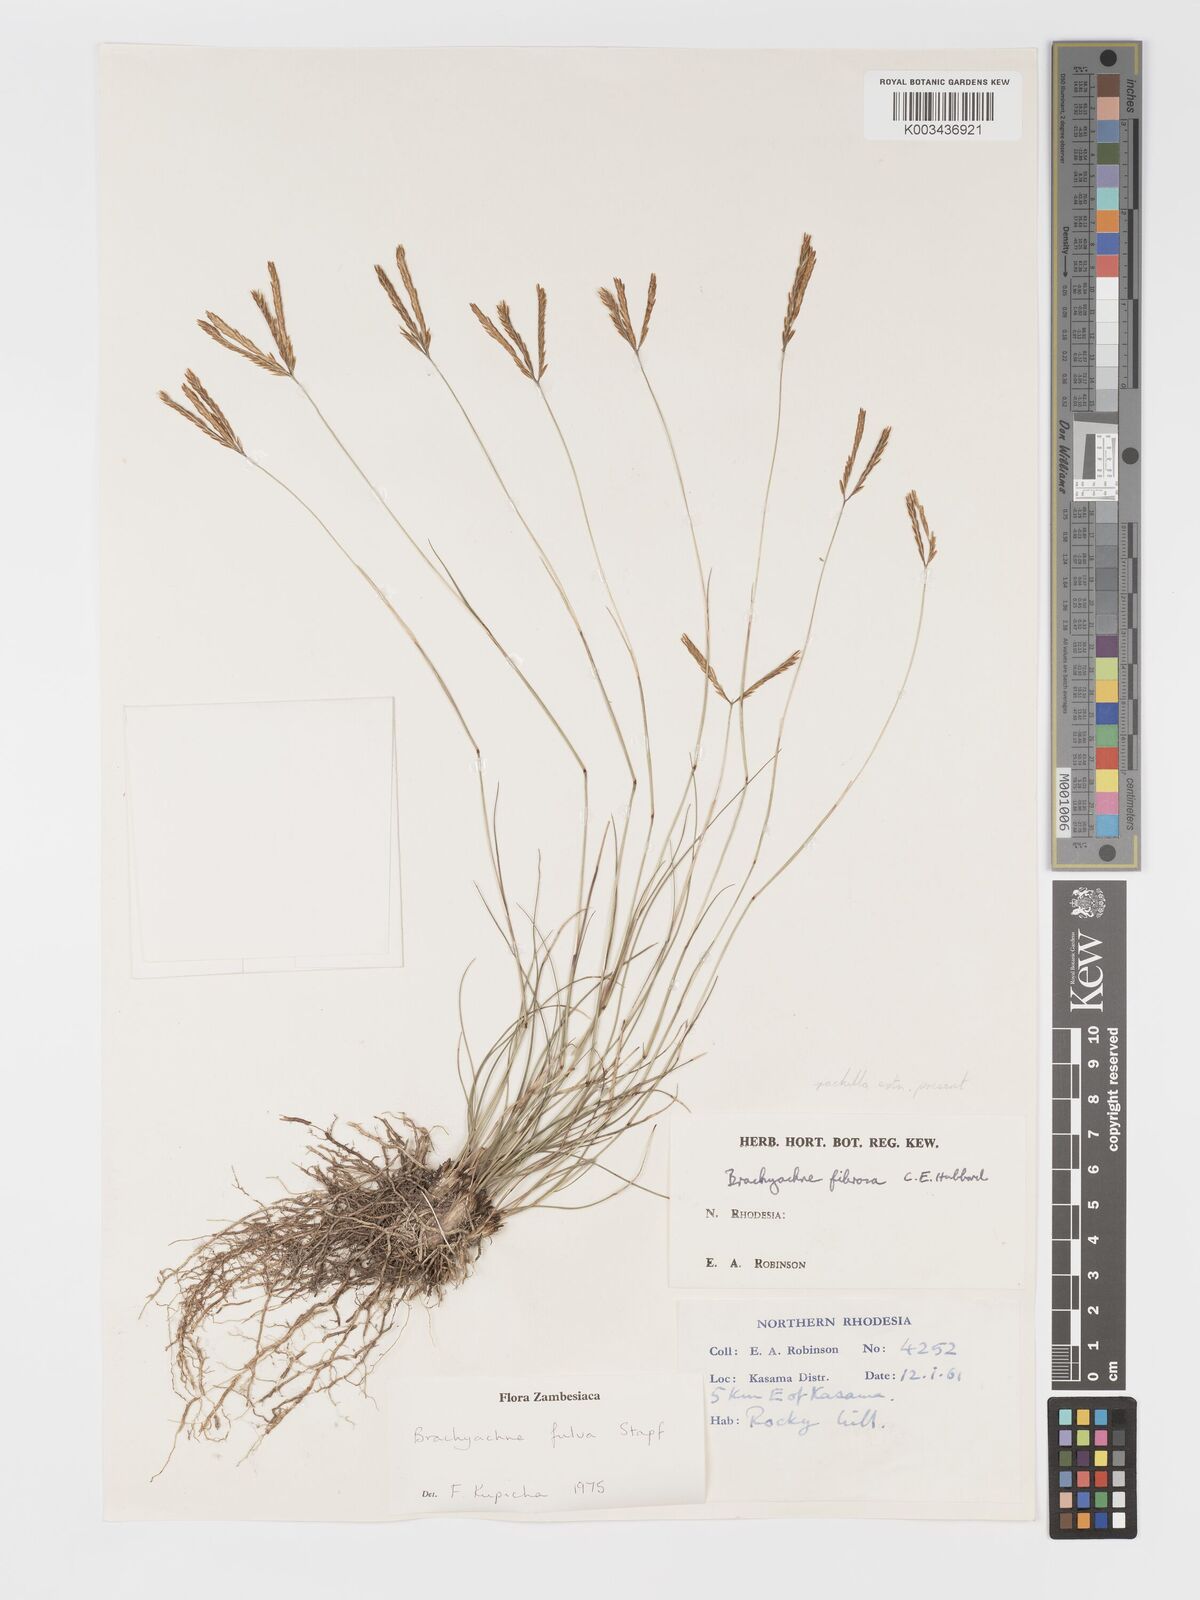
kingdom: Plantae
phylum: Tracheophyta
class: Liliopsida
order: Poales
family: Poaceae
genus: Micrachne
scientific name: Micrachne fulva
